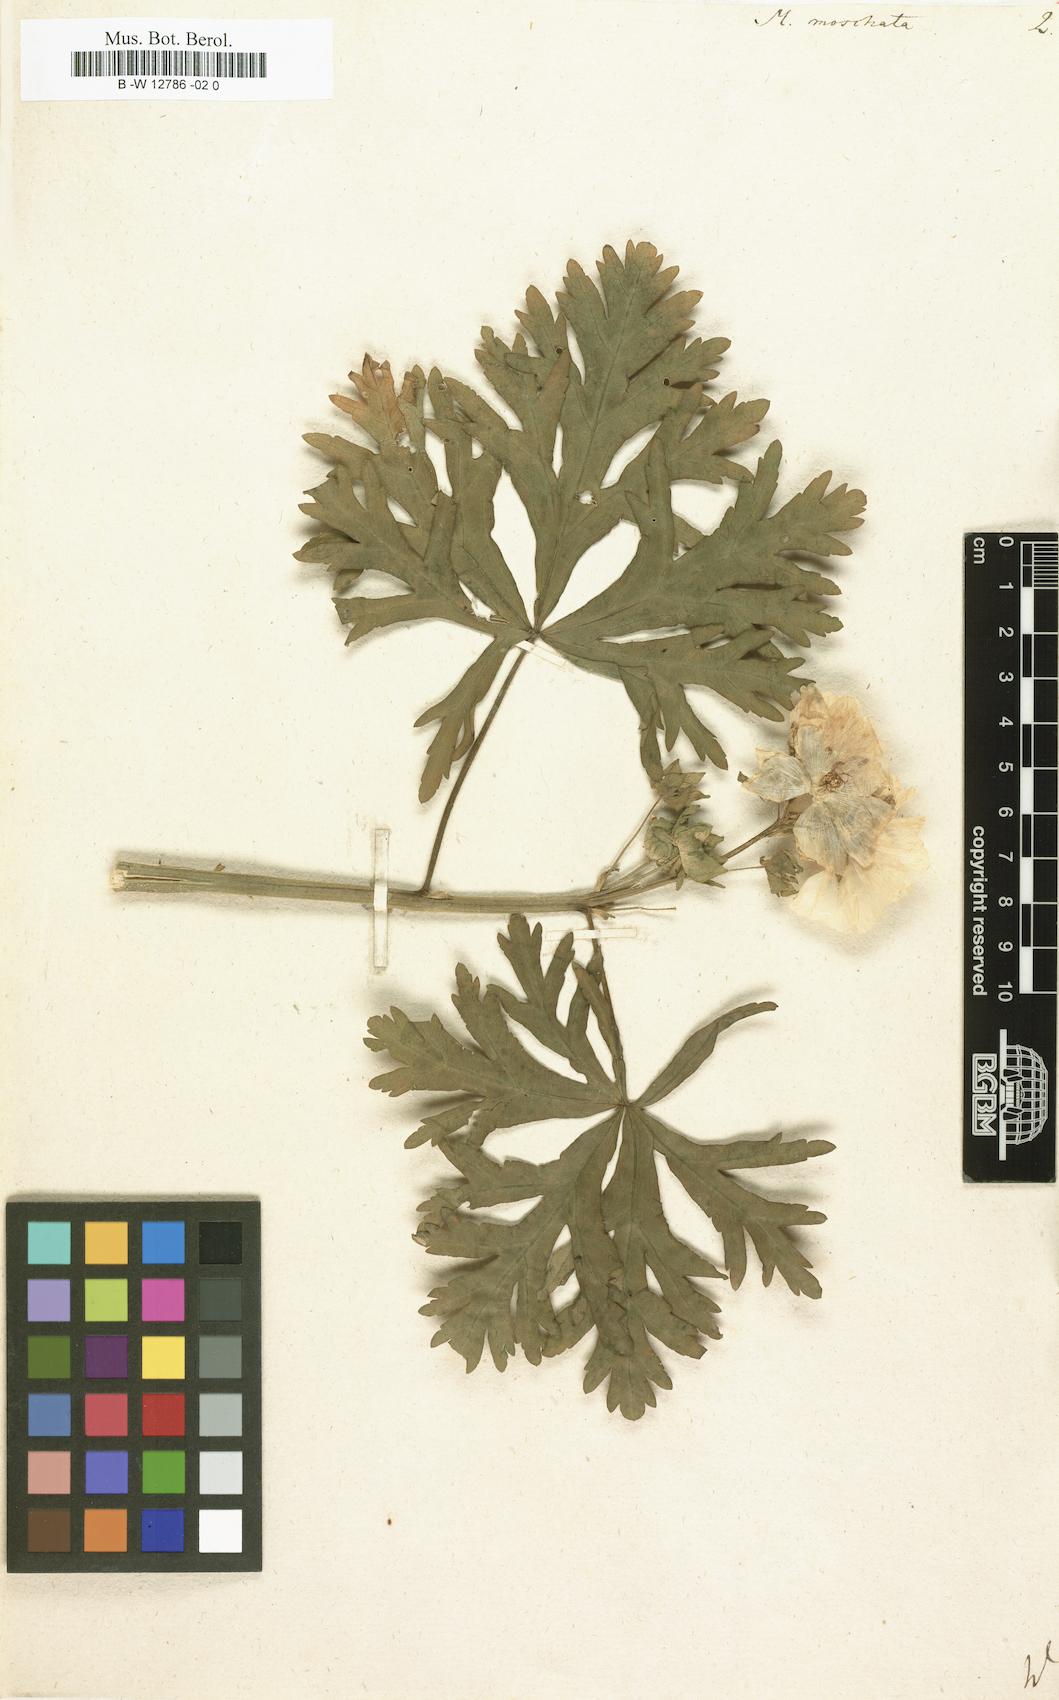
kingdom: Plantae
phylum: Tracheophyta
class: Magnoliopsida
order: Malvales
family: Malvaceae
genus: Malva
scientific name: Malva
